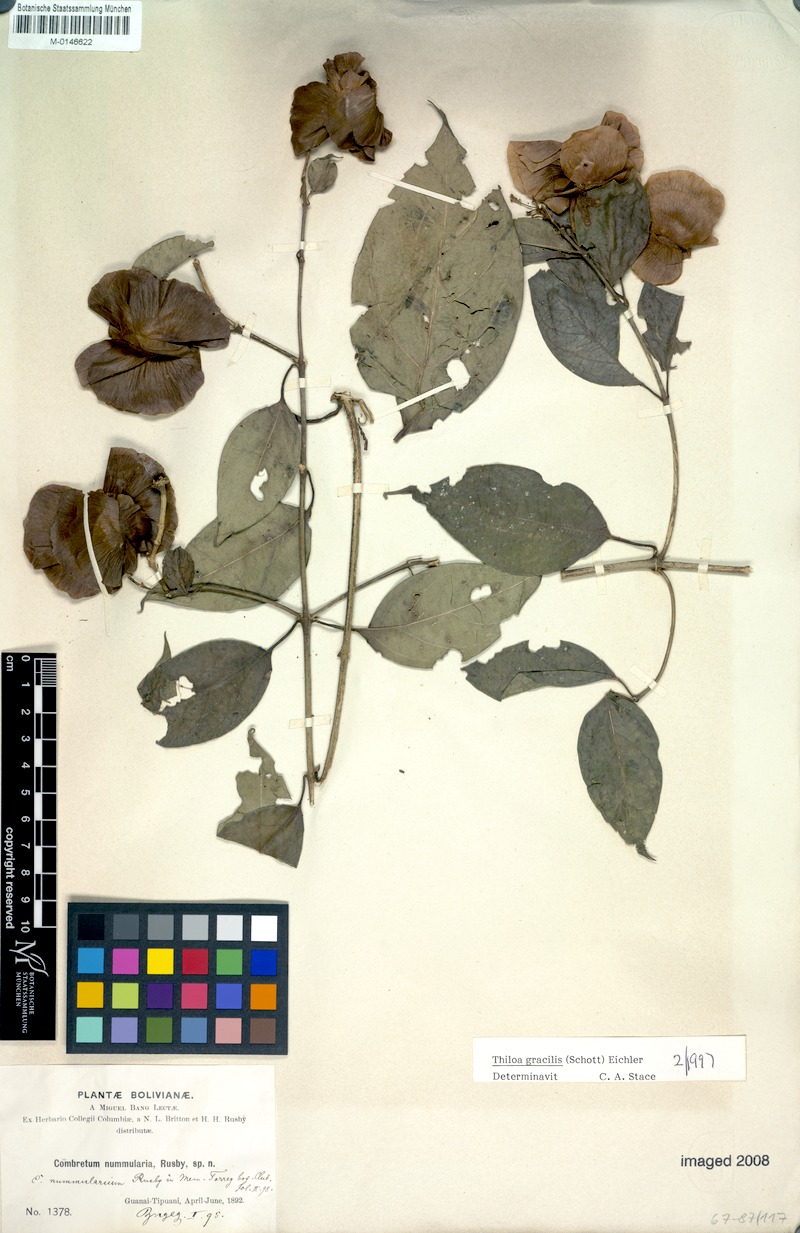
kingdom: Plantae
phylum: Tracheophyta
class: Magnoliopsida
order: Myrtales
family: Combretaceae
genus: Combretum
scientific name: Combretum gracile
